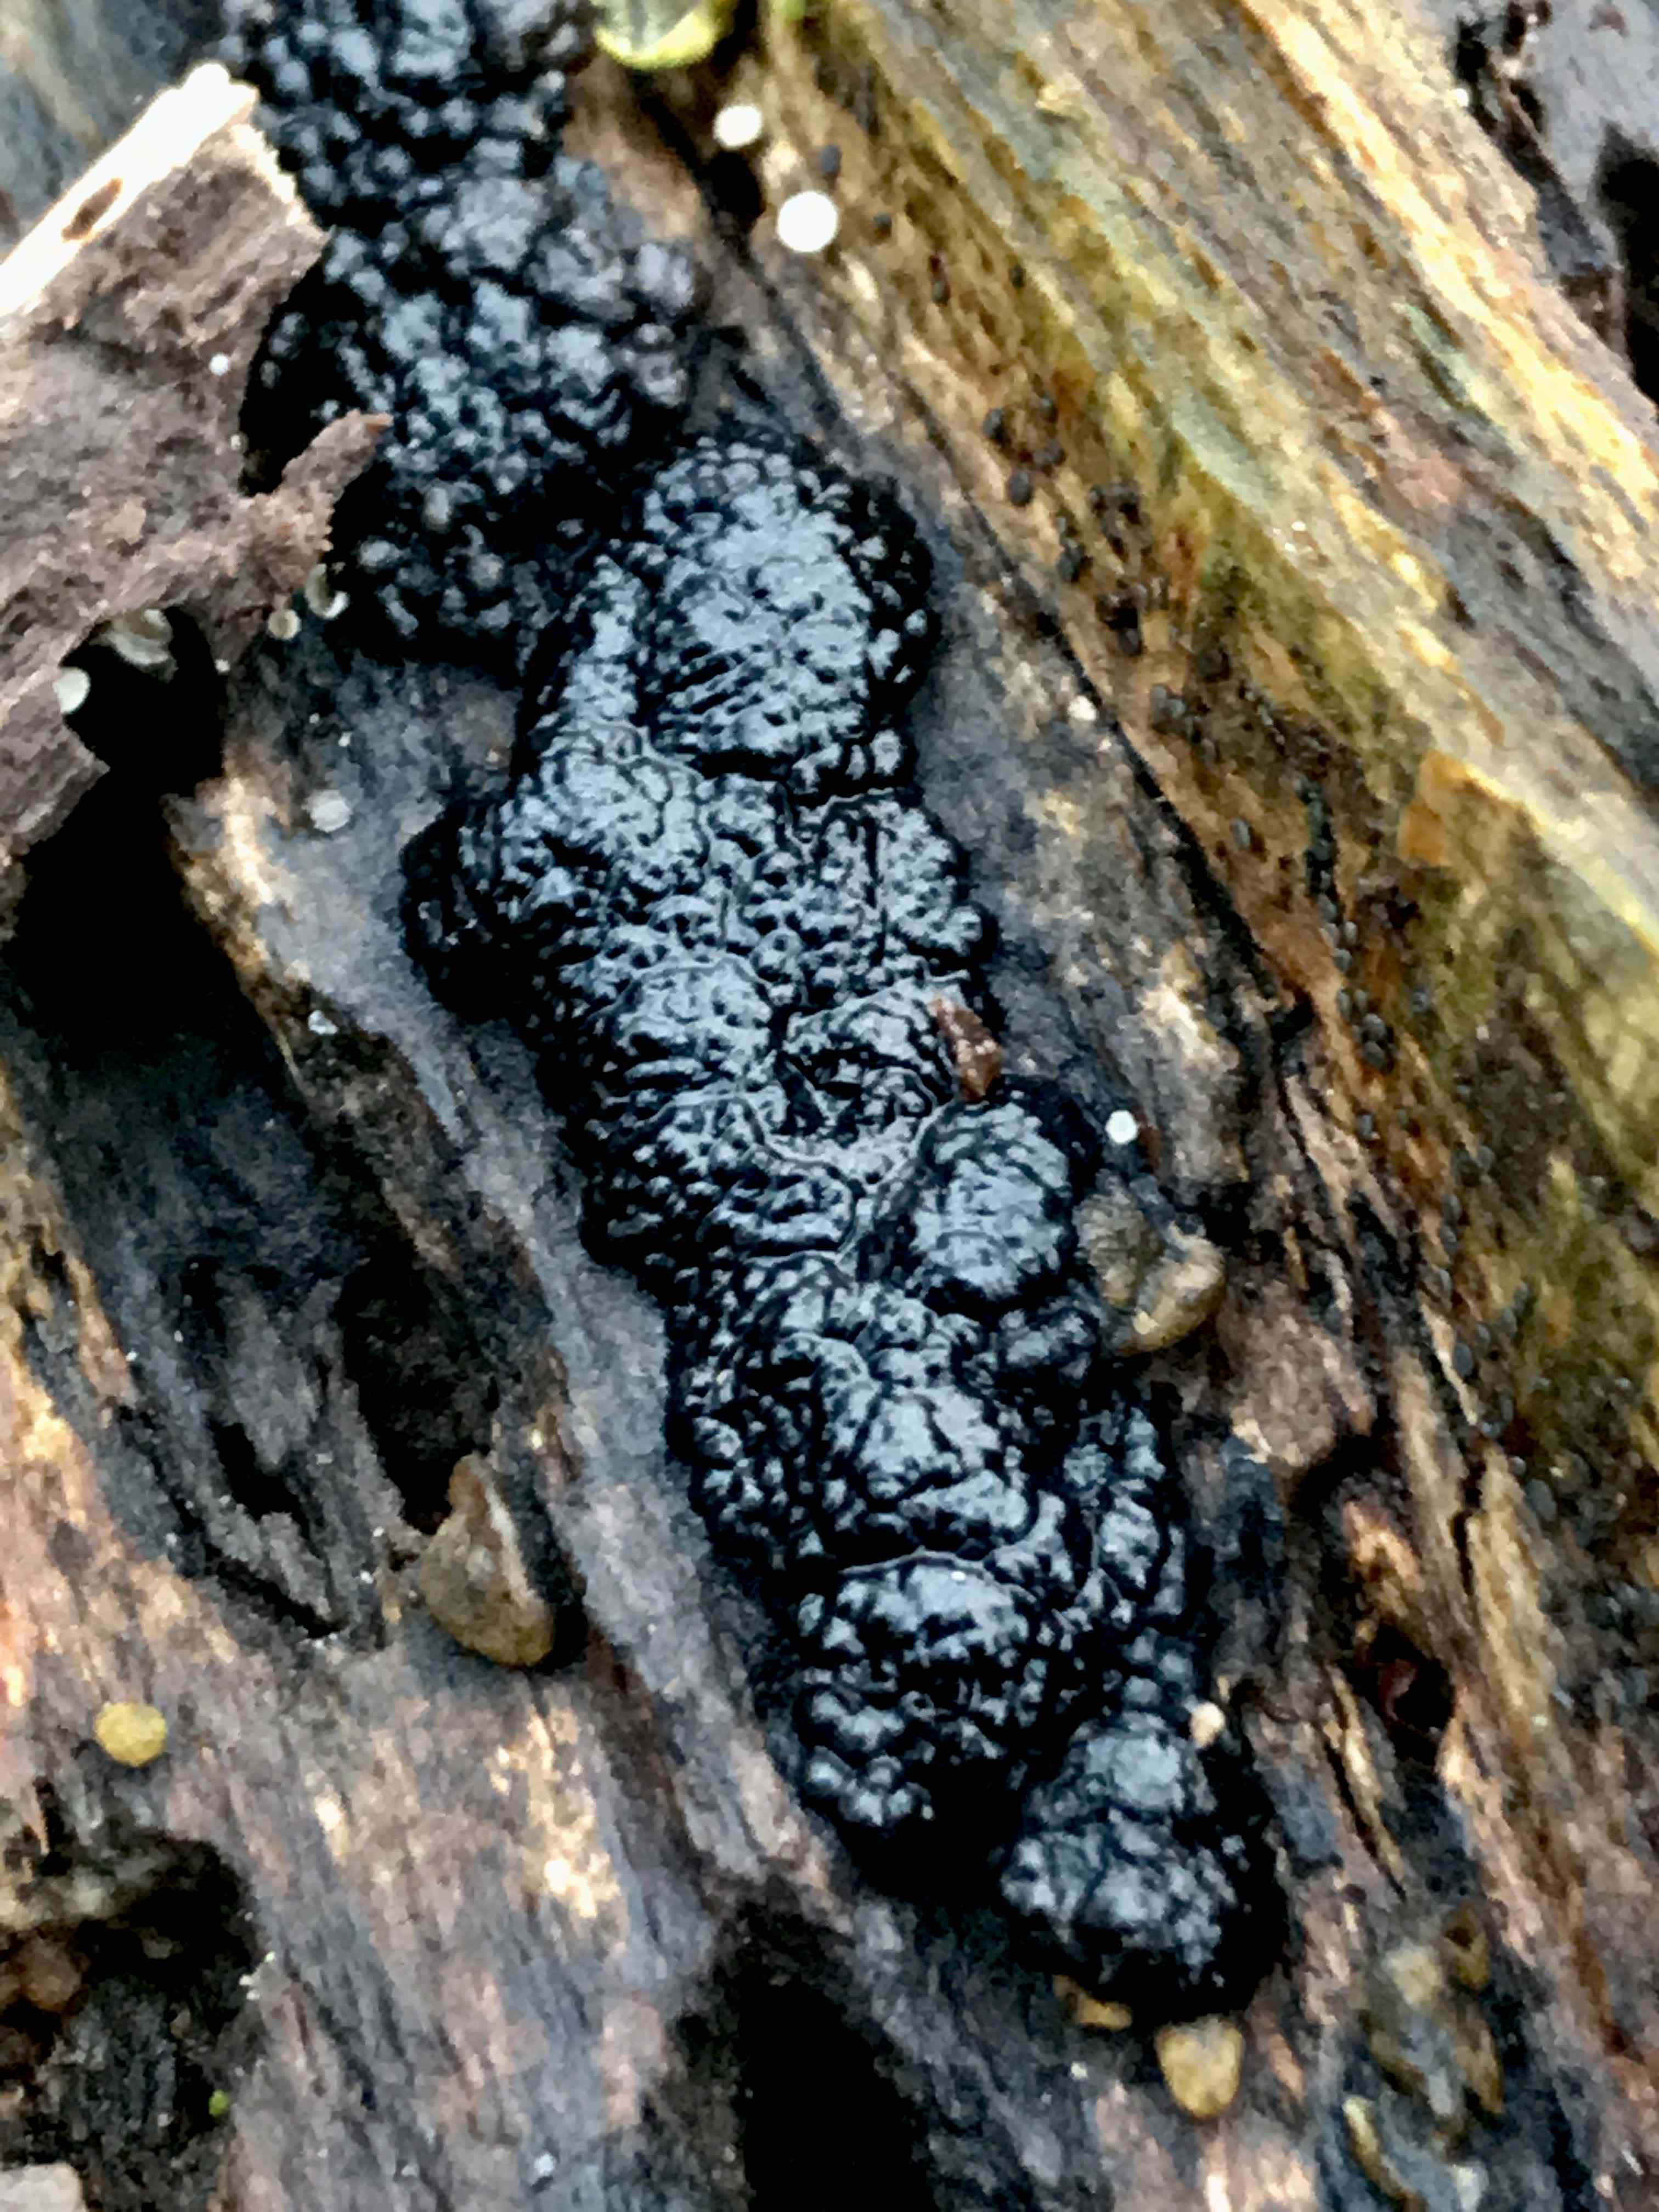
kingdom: Fungi
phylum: Ascomycota
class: Sordariomycetes
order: Xylariales
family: Hypoxylaceae
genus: Jackrogersella
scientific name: Jackrogersella cohaerens
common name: sammenflydende kulbær
